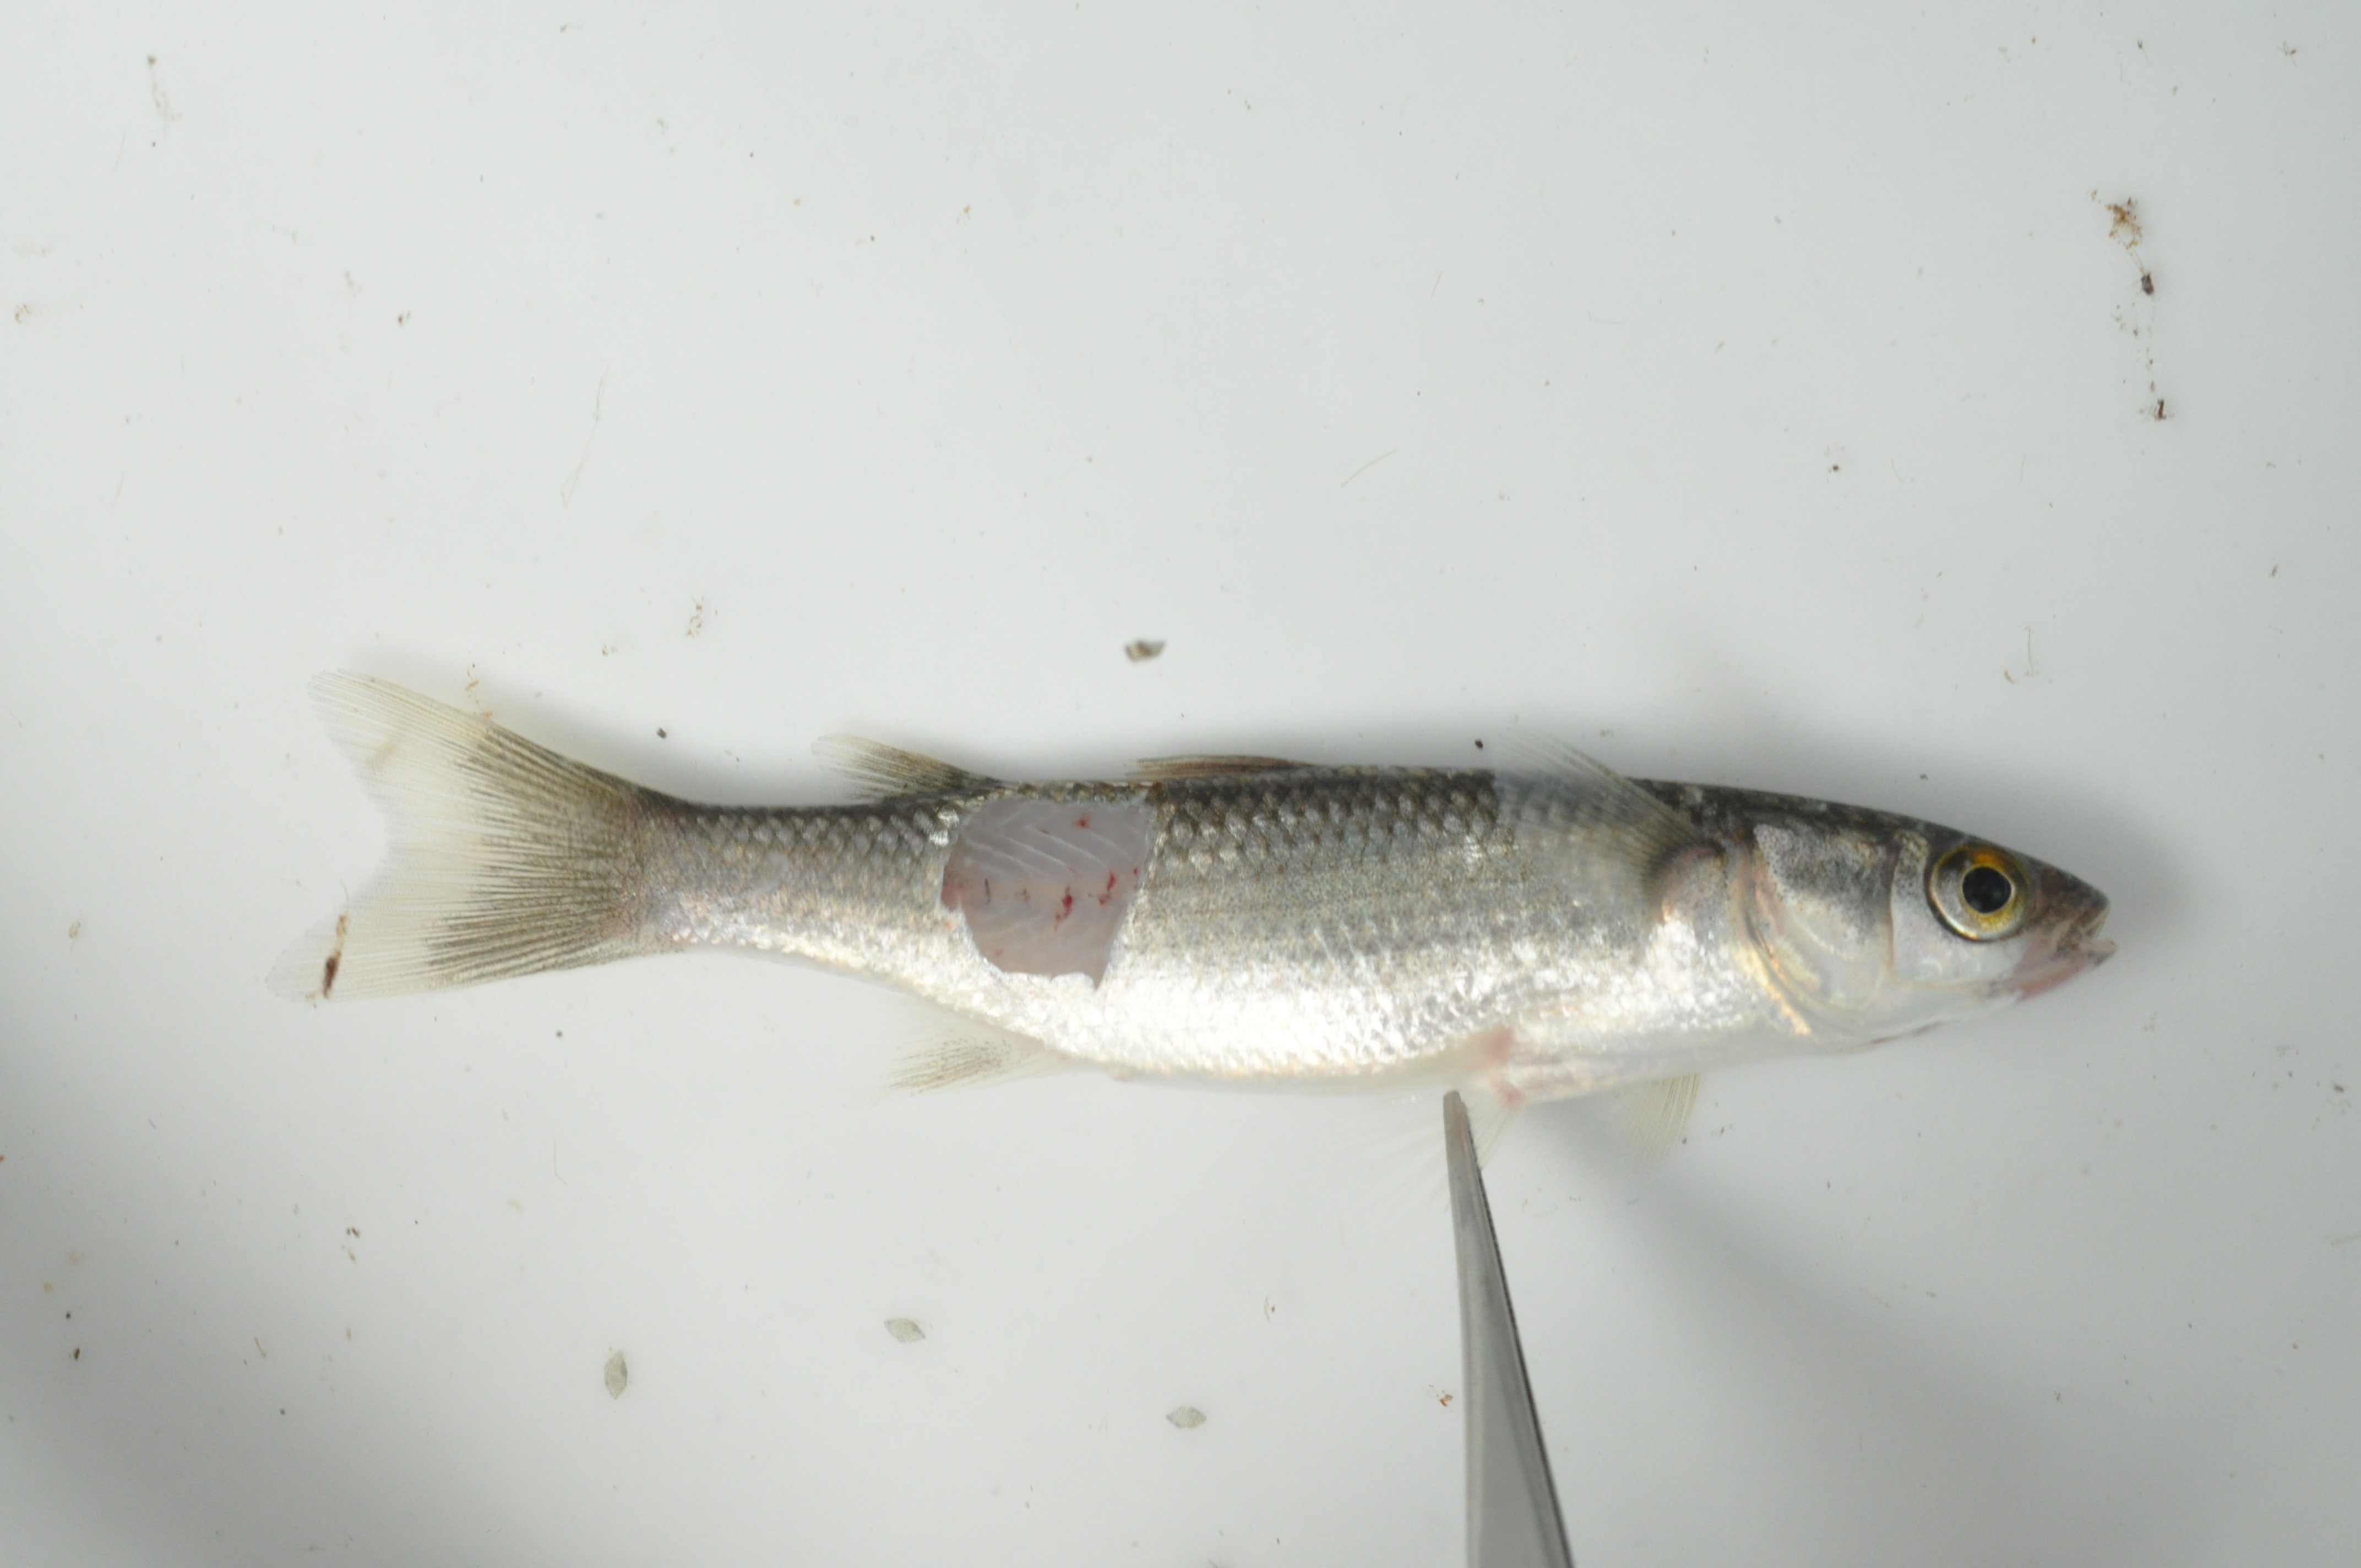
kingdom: Animalia
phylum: Chordata
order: Mugiliformes
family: Mugilidae
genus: Pseudomyxus
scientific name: Pseudomyxus capensis
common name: Freshwater mullet
